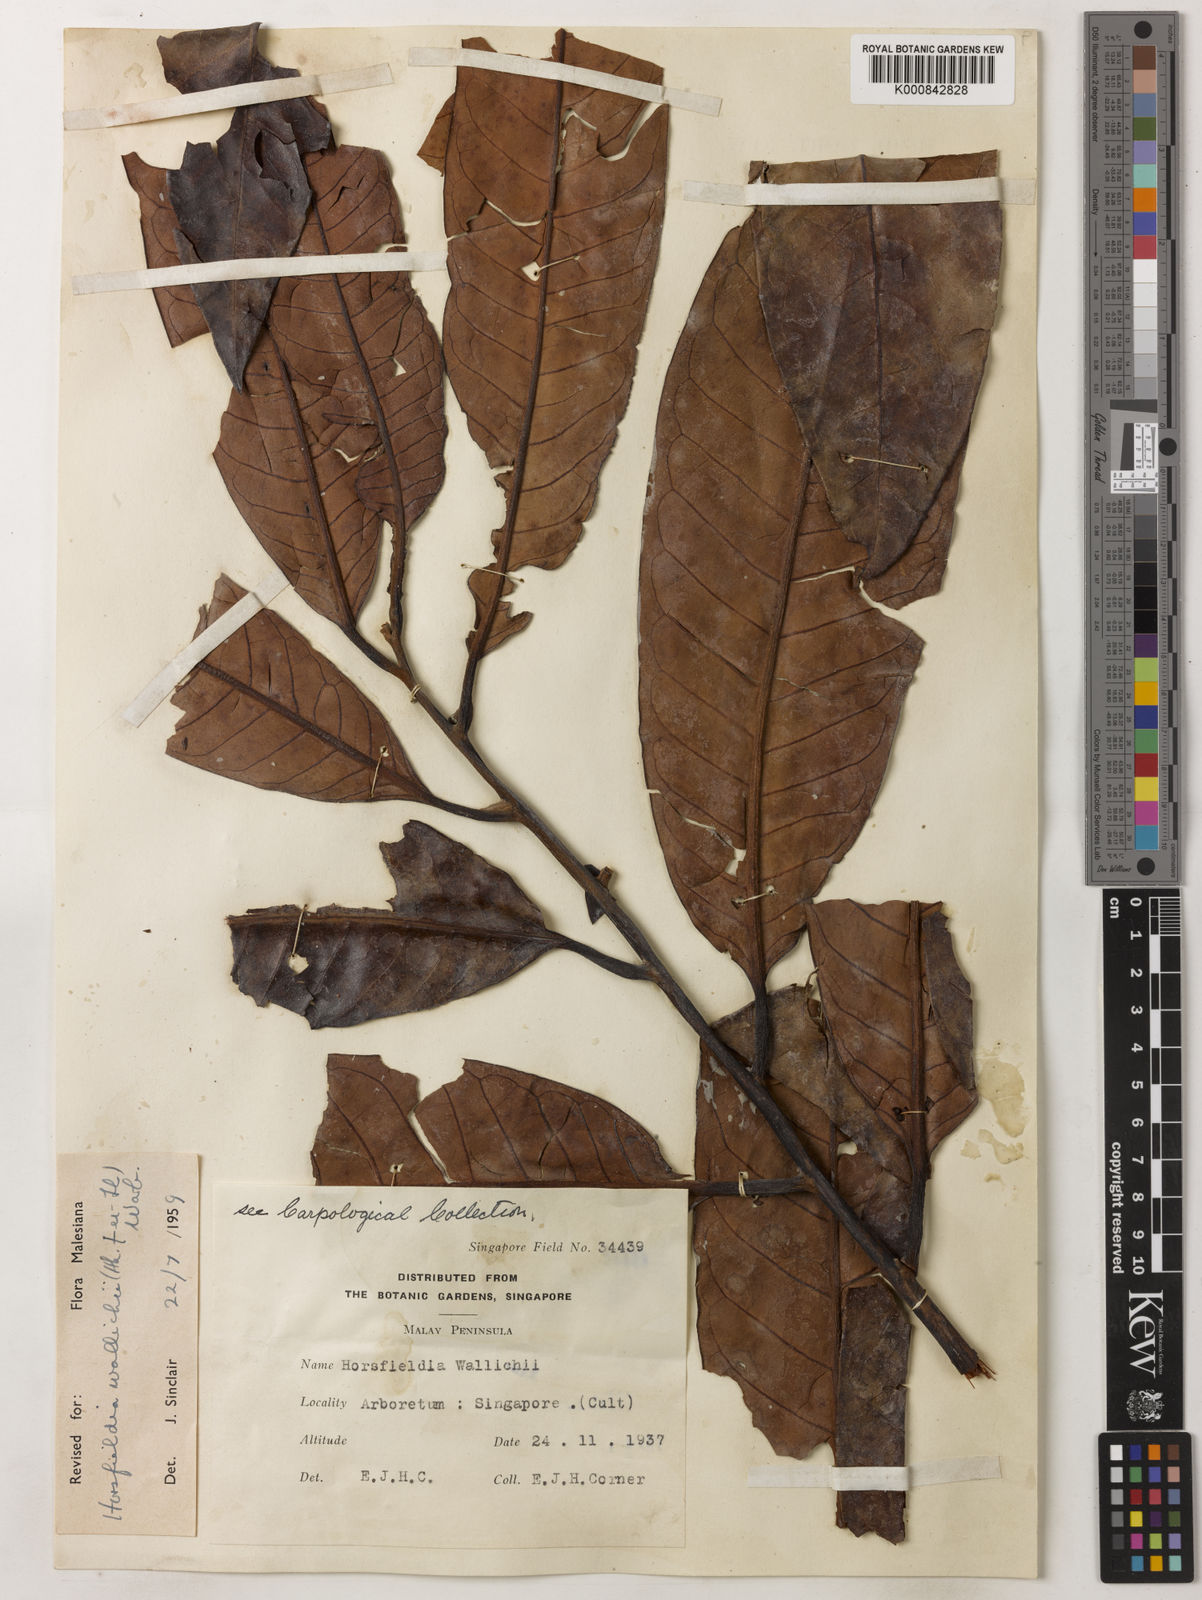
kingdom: Plantae
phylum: Tracheophyta
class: Magnoliopsida
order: Magnoliales
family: Myristicaceae
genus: Horsfieldia
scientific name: Horsfieldia wallichii
